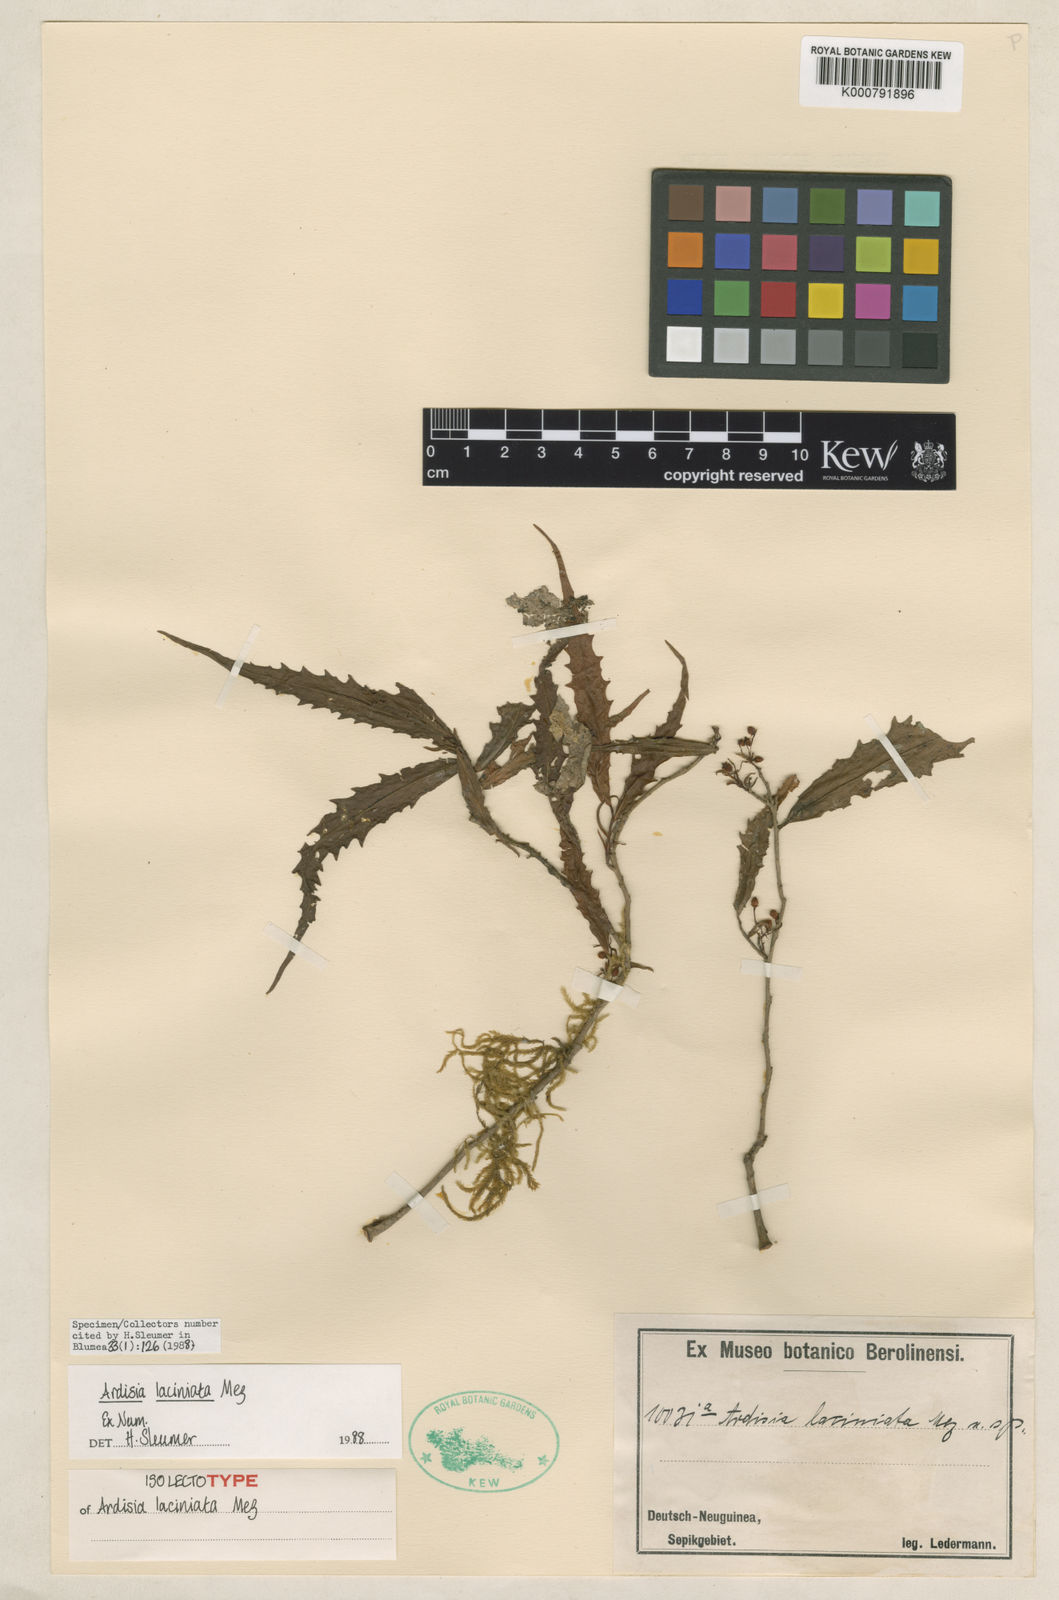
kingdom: Plantae
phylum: Tracheophyta
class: Magnoliopsida
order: Ericales
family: Primulaceae
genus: Ardisia
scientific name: Ardisia laciniata
